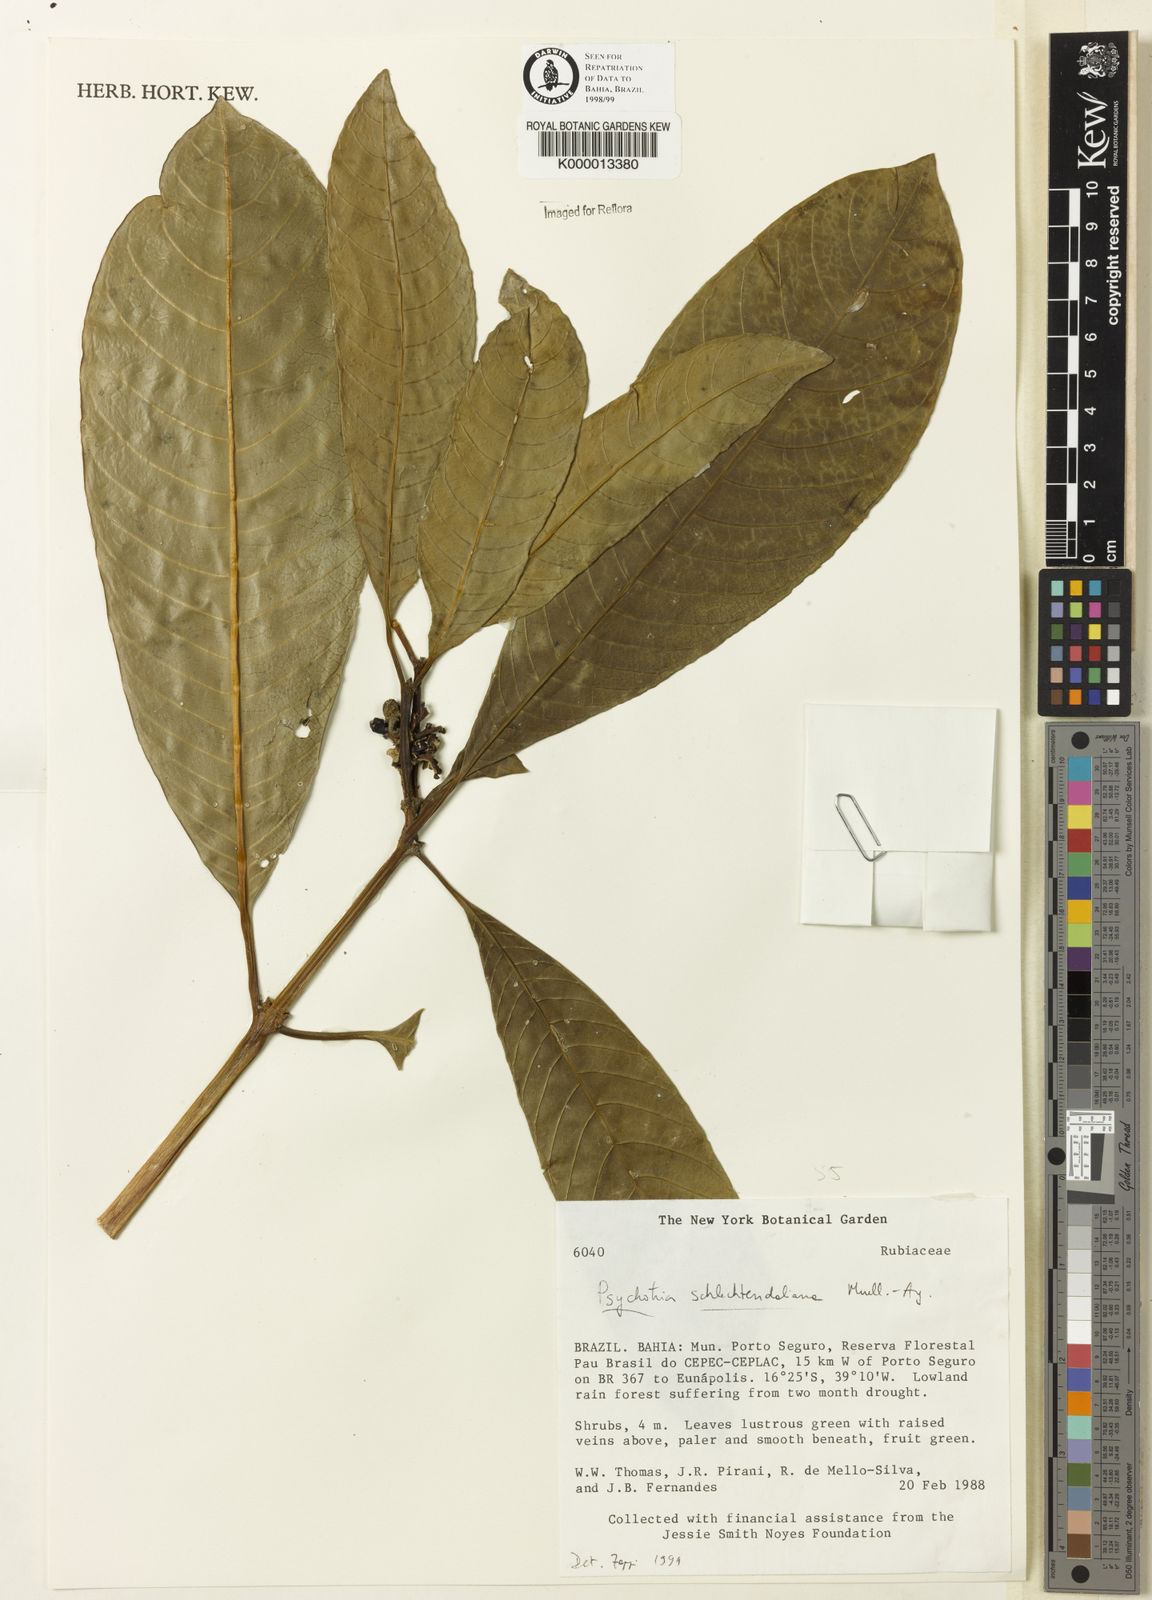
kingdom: Plantae
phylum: Tracheophyta
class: Magnoliopsida
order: Gentianales
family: Rubiaceae
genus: Palicourea
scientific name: Palicourea divaricata
